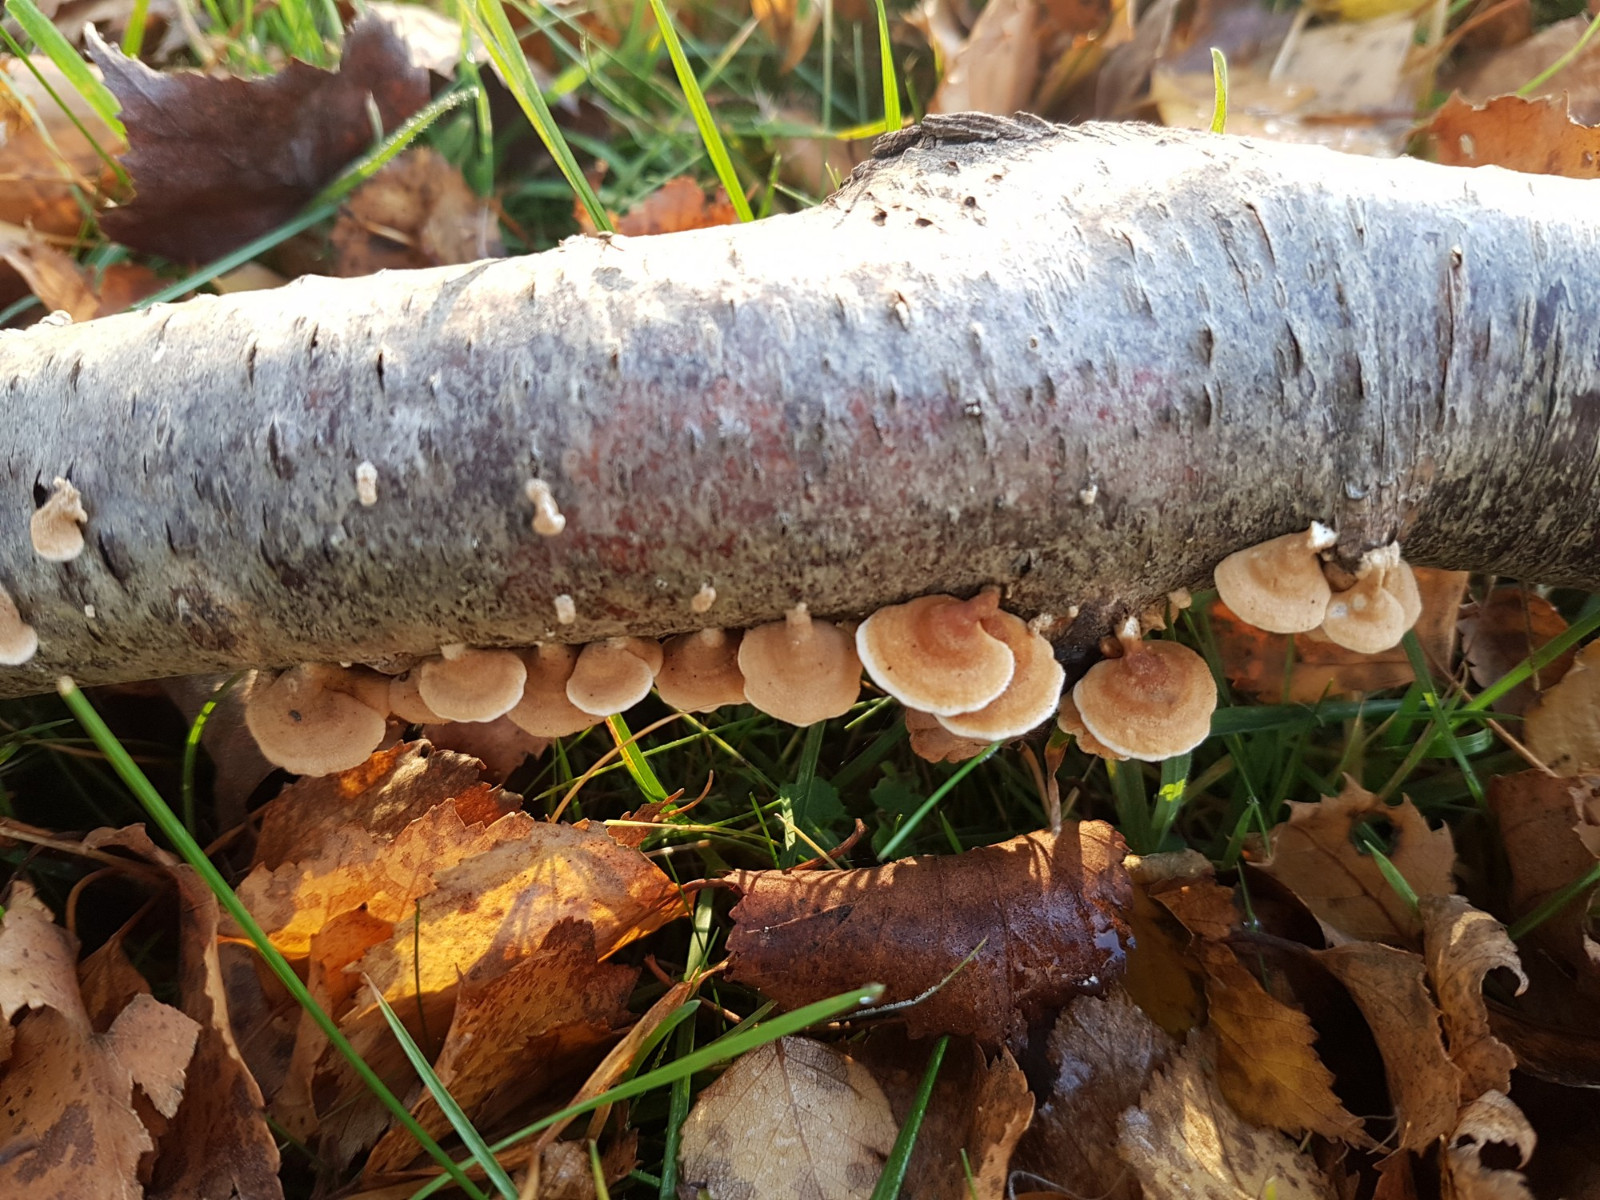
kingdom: Fungi
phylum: Basidiomycota
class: Agaricomycetes
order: Amylocorticiales
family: Amylocorticiaceae
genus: Plicaturopsis
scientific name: Plicaturopsis crispa
